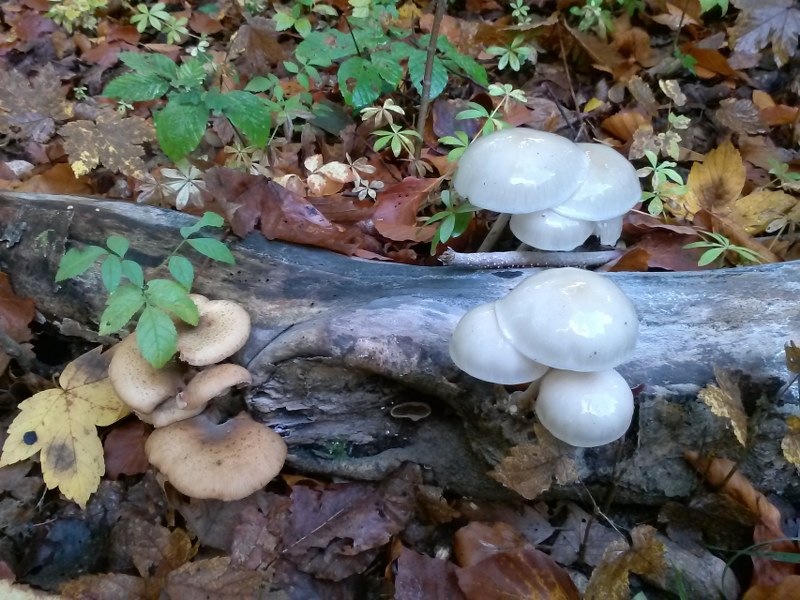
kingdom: Fungi
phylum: Basidiomycota
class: Agaricomycetes
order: Agaricales
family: Physalacriaceae
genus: Mucidula
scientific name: Mucidula mucida
